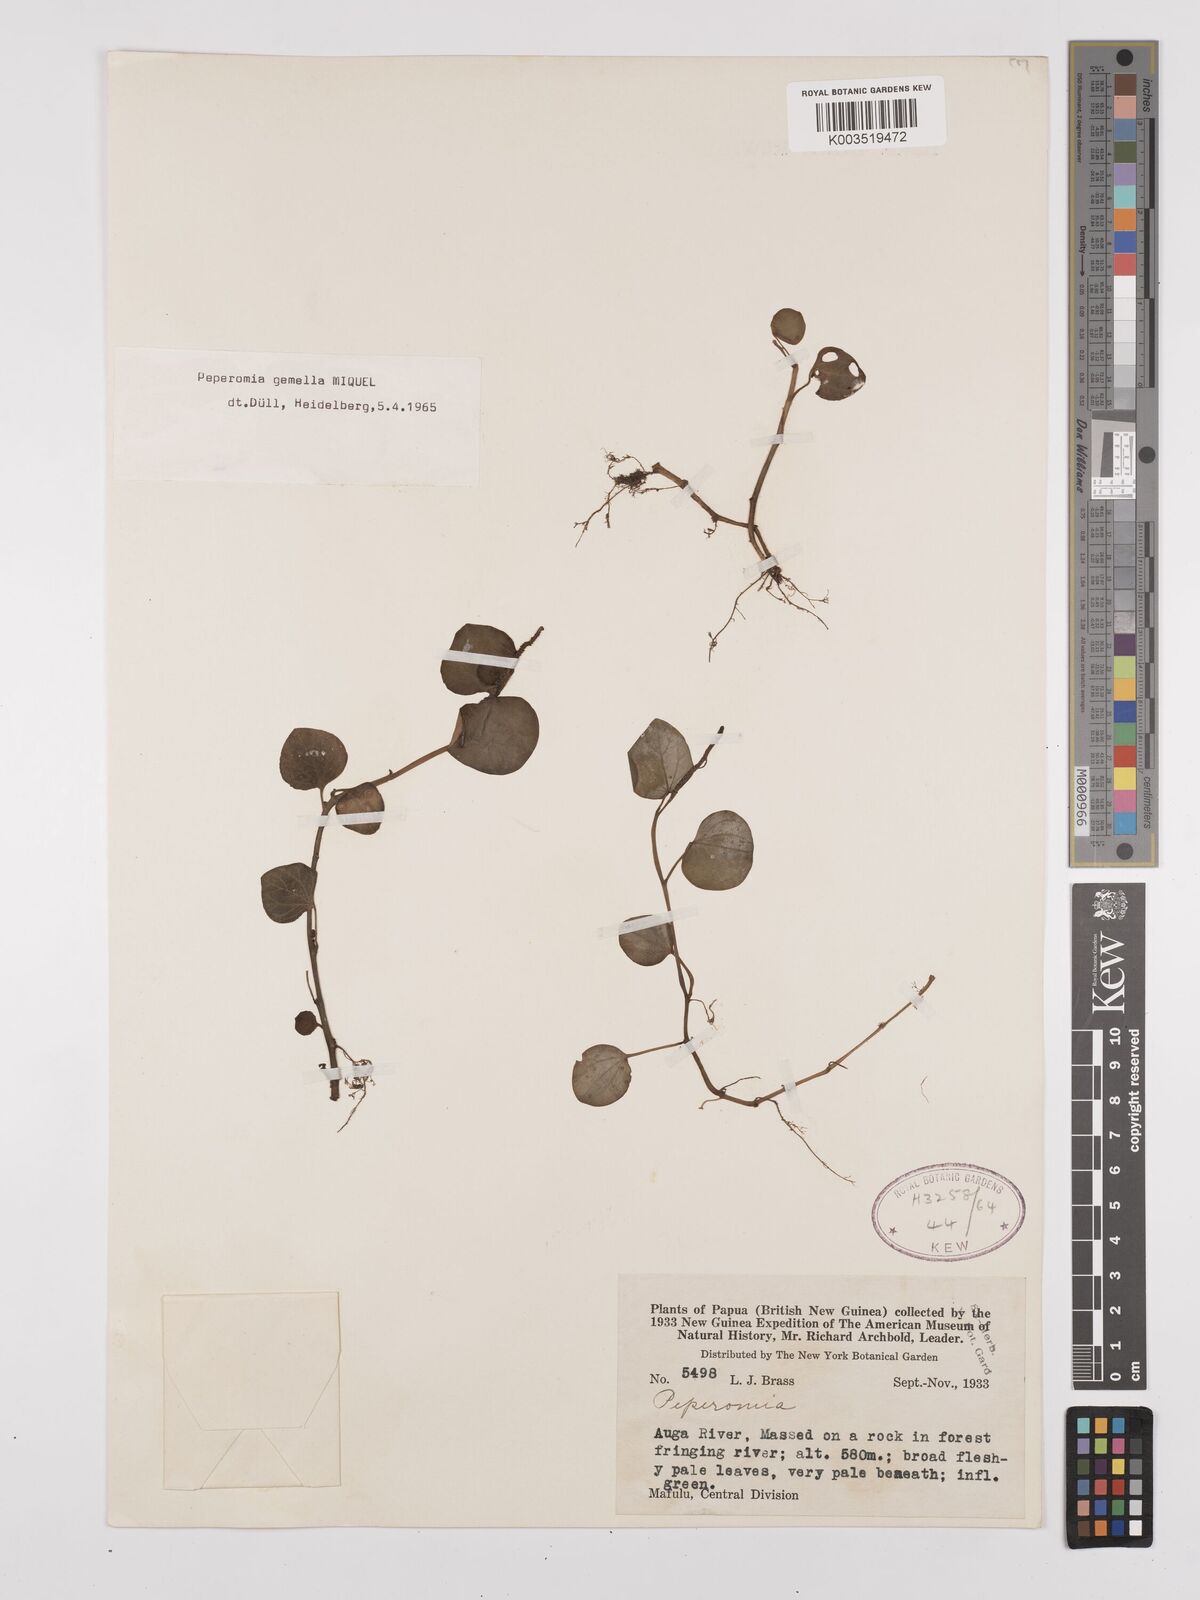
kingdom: Plantae
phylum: Tracheophyta
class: Magnoliopsida
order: Piperales
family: Piperaceae
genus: Peperomia
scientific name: Peperomia gemella
